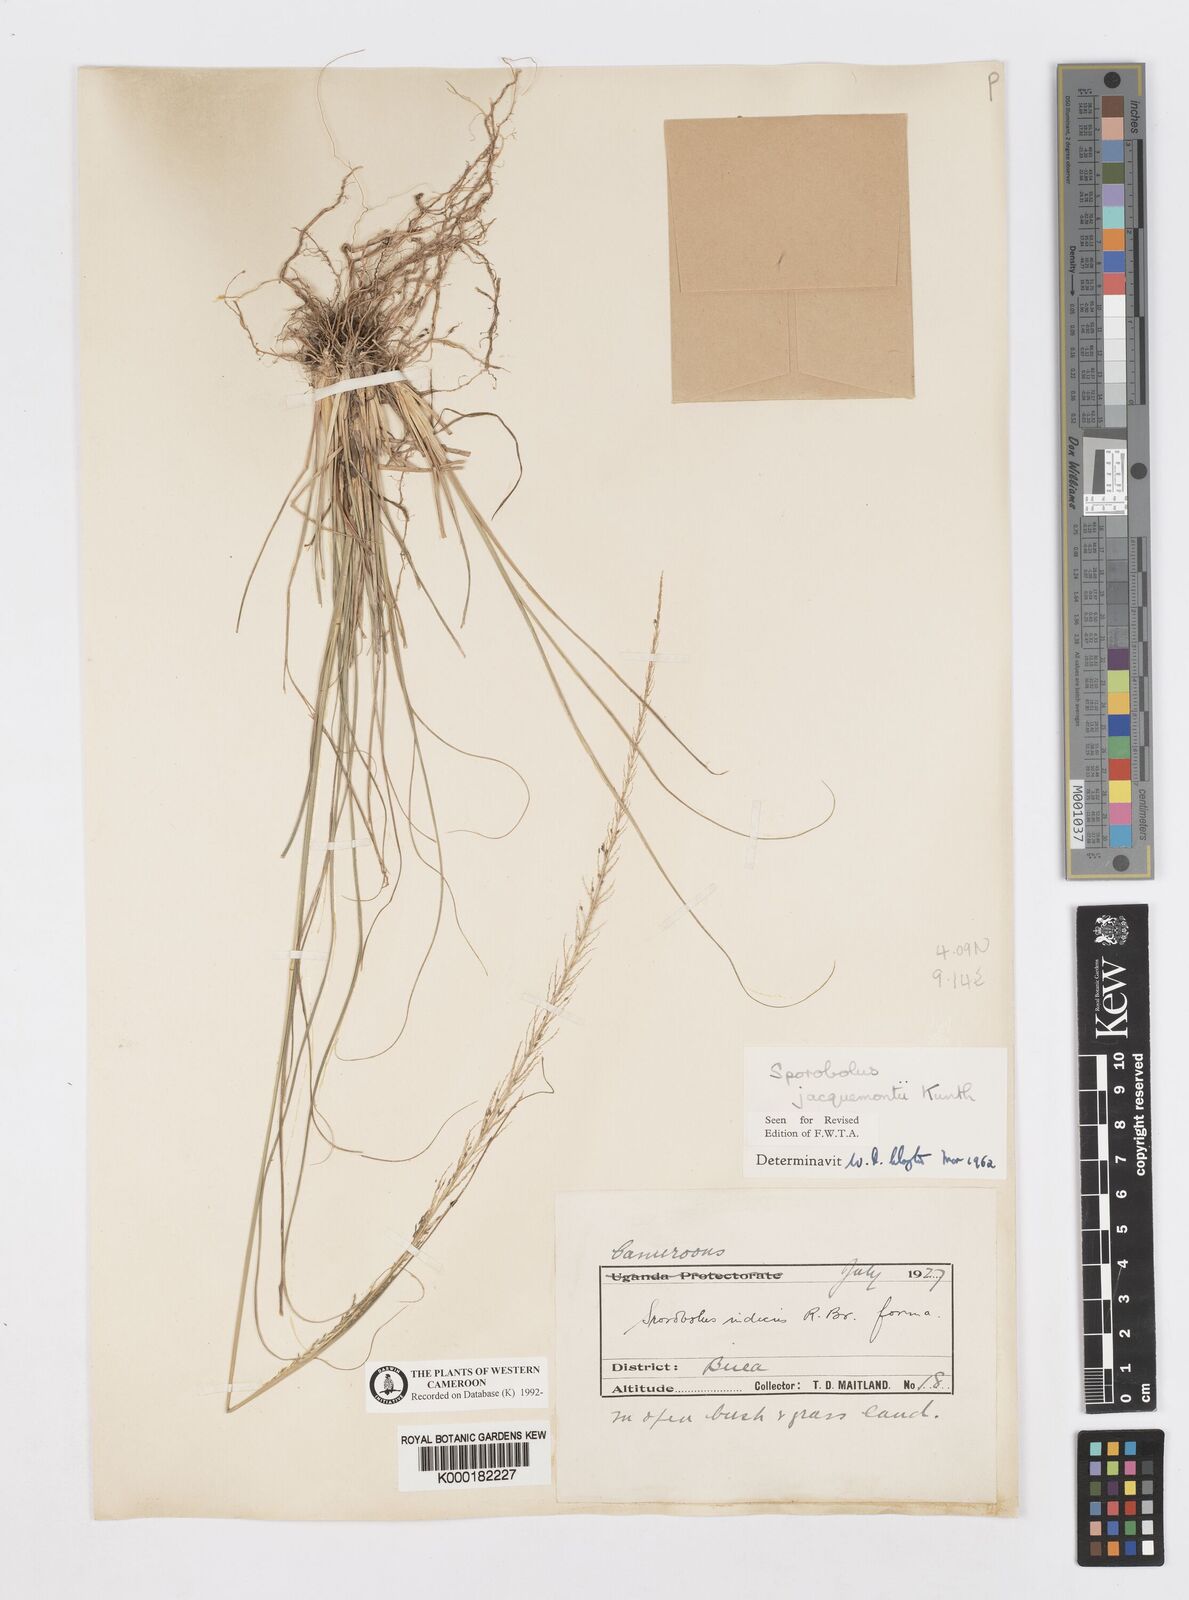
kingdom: Plantae
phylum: Tracheophyta
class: Liliopsida
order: Poales
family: Poaceae
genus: Sporobolus
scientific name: Sporobolus pyramidalis
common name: West indian dropseed
